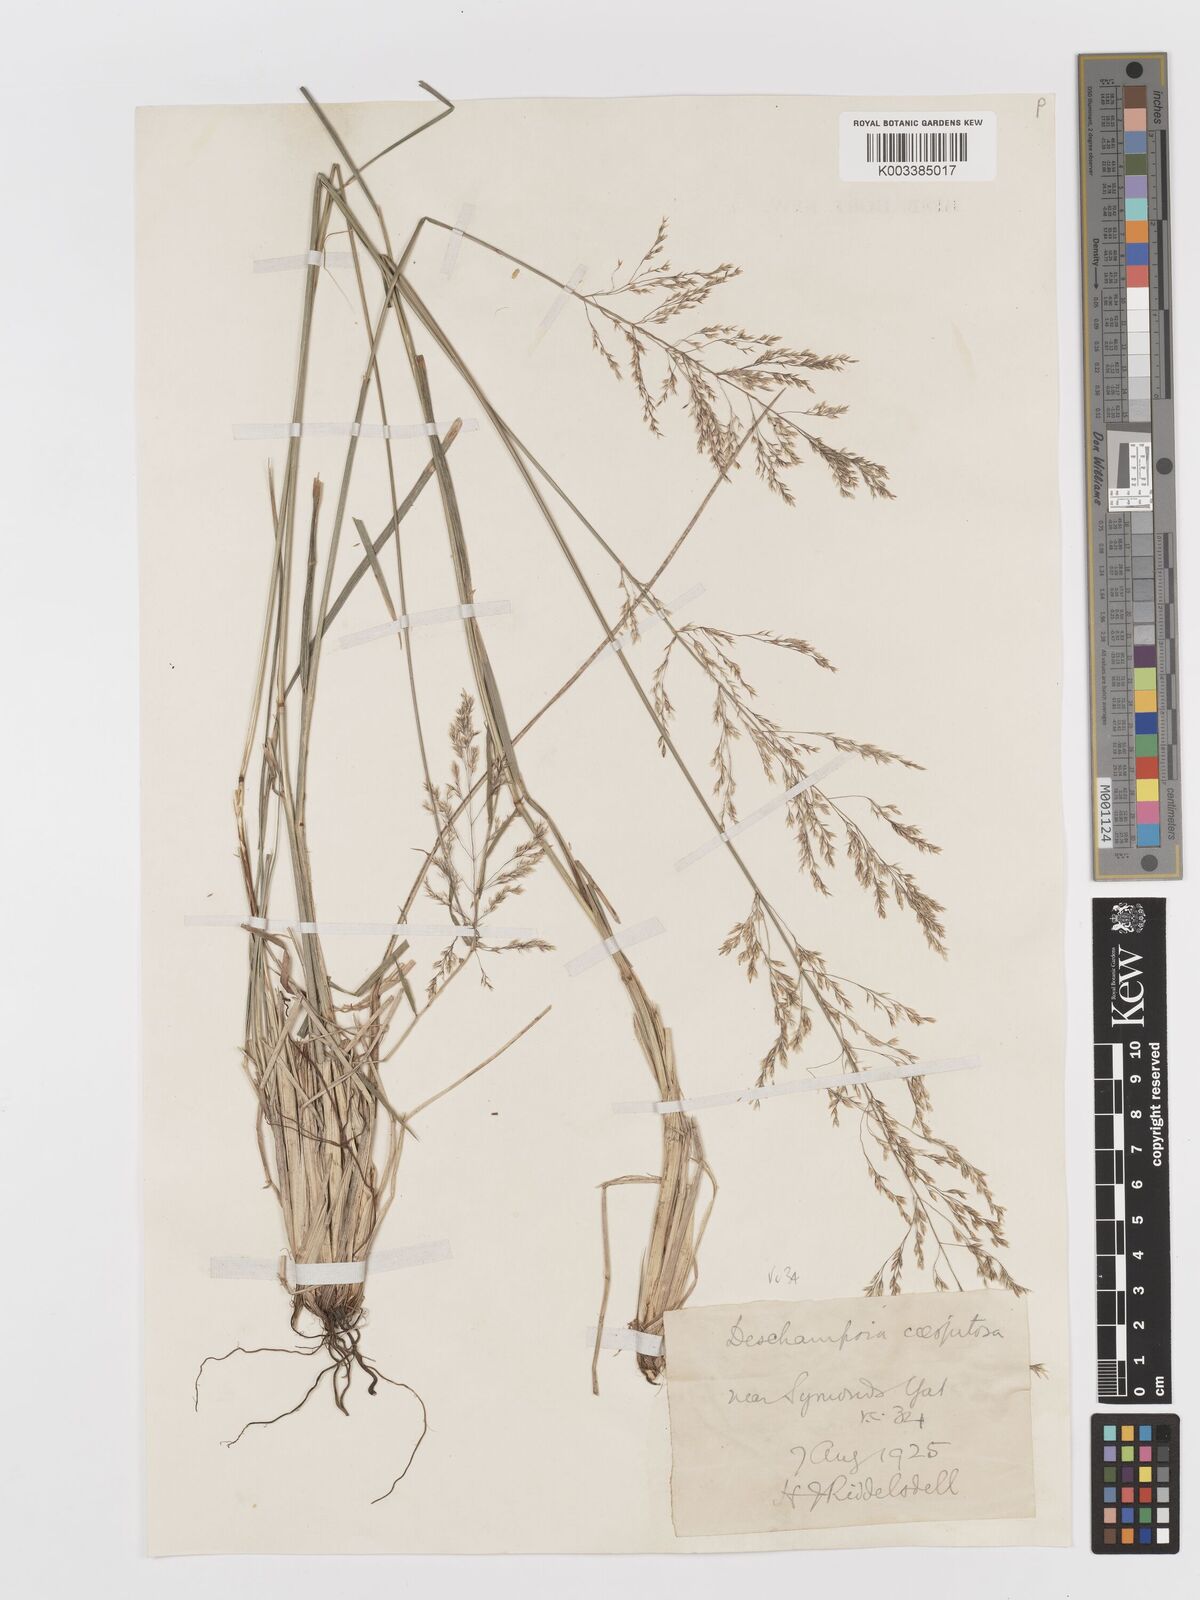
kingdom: Plantae
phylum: Tracheophyta
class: Liliopsida
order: Poales
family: Poaceae
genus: Deschampsia
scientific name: Deschampsia cespitosa
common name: Tufted hair-grass
